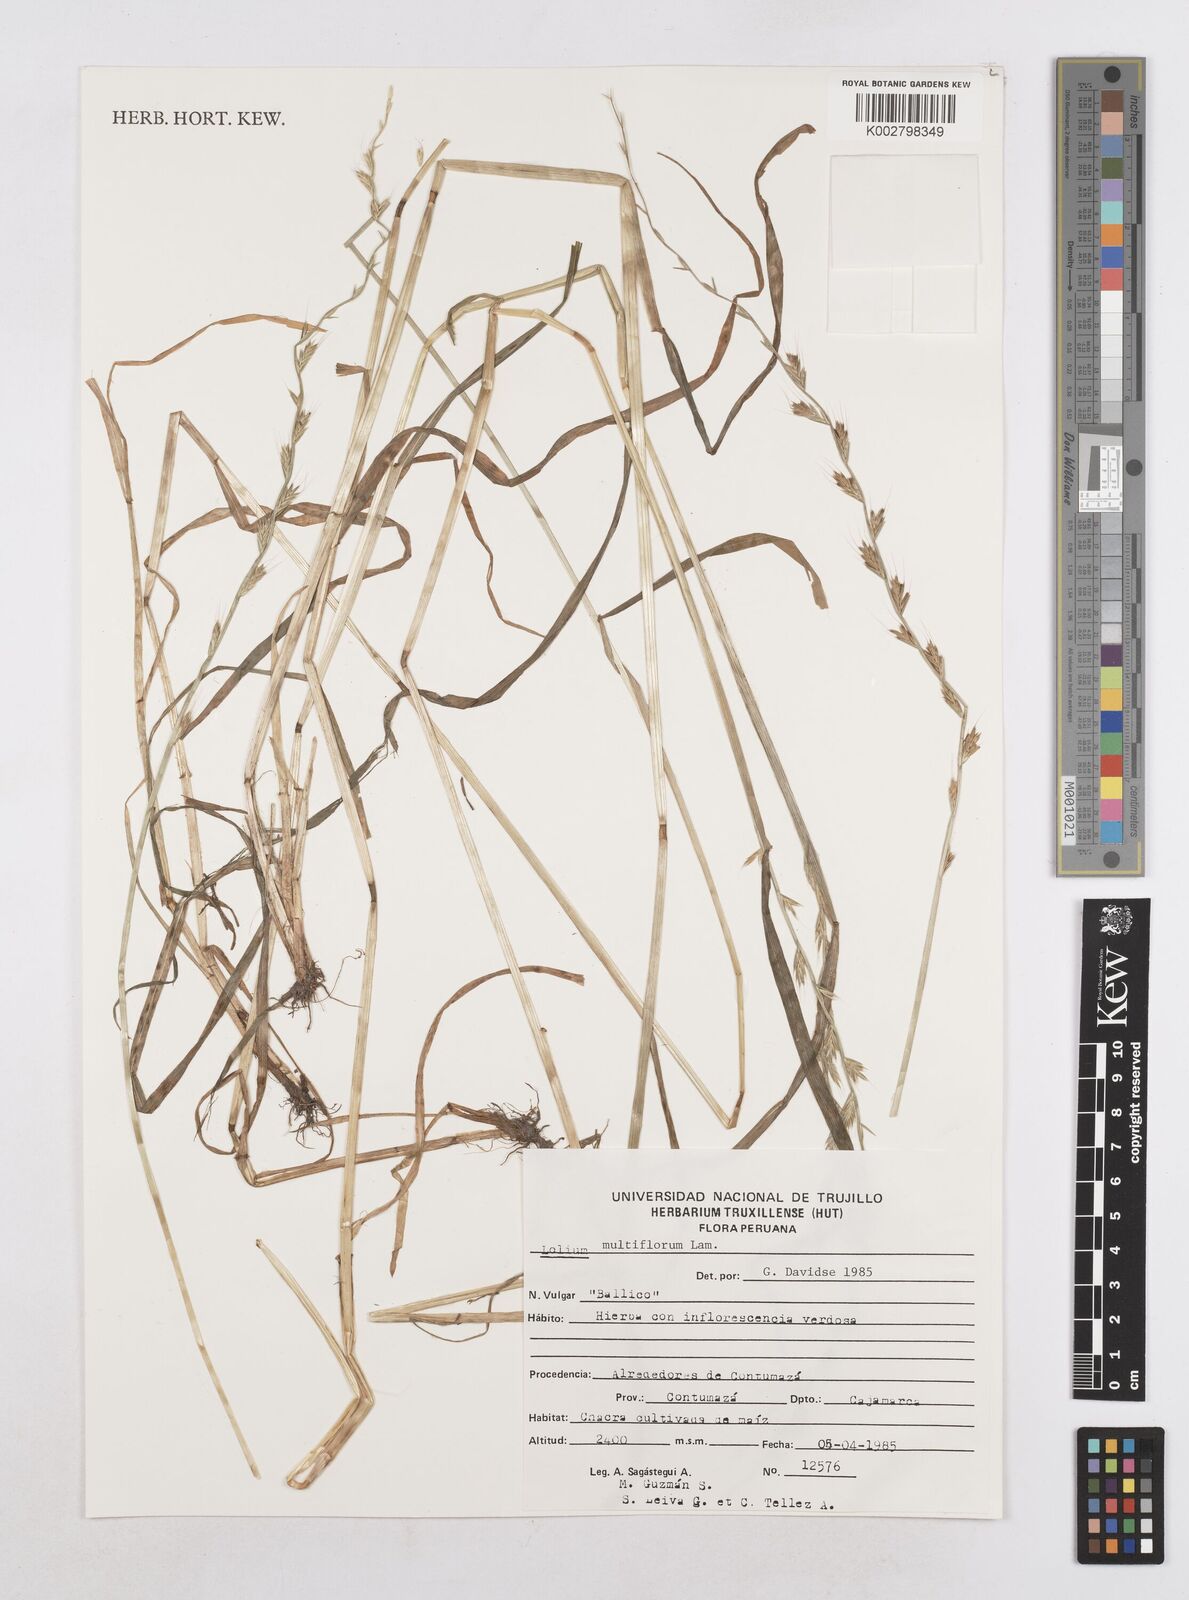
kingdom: Plantae
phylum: Tracheophyta
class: Liliopsida
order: Poales
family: Poaceae
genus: Lolium
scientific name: Lolium multiflorum
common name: Annual ryegrass
